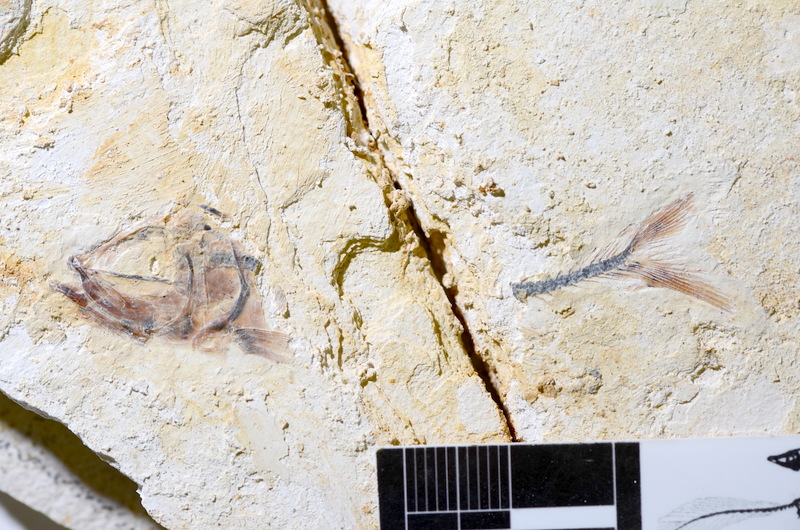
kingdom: Animalia
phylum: Chordata
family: Ascalaboidae
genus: Ebertichthys
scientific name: Ebertichthys ettlingensis
